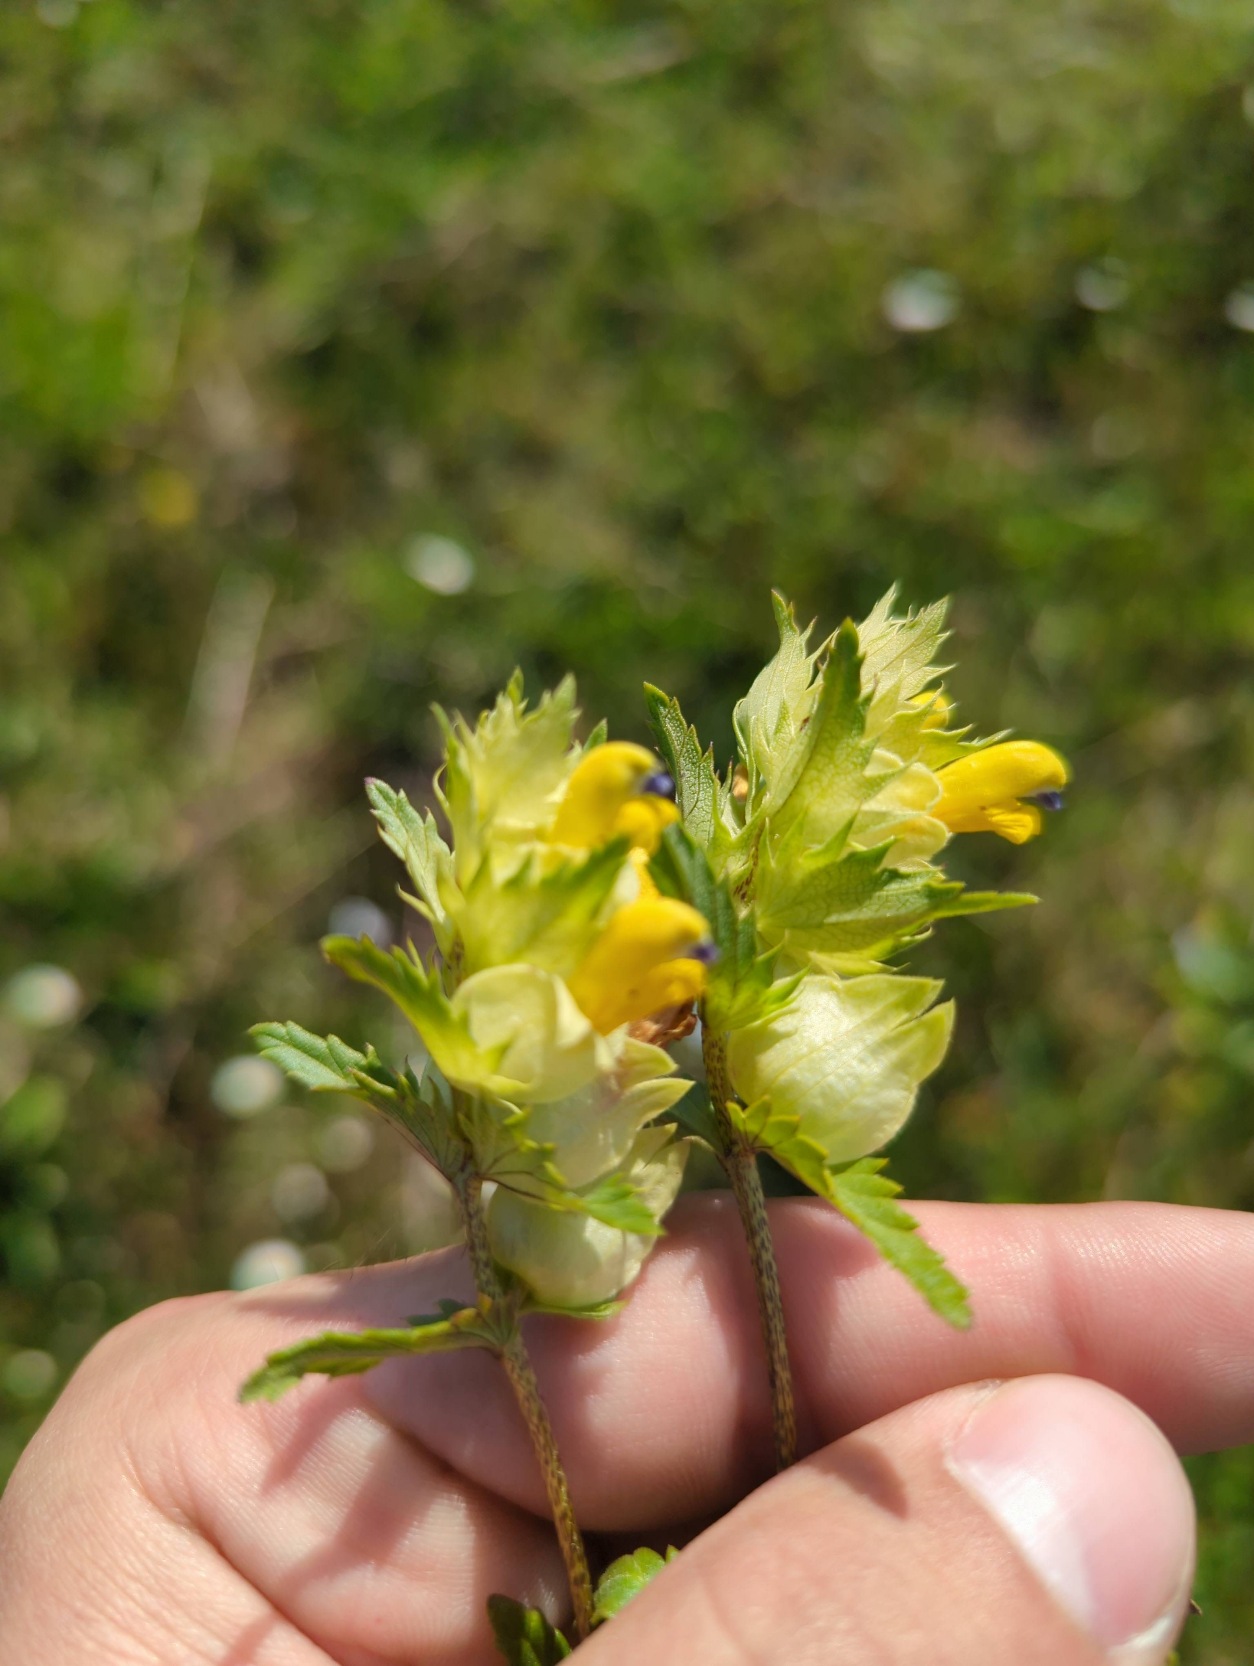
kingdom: Plantae
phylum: Tracheophyta
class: Magnoliopsida
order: Lamiales
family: Orobanchaceae
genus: Rhinanthus
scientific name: Rhinanthus
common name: Stor skjaller
